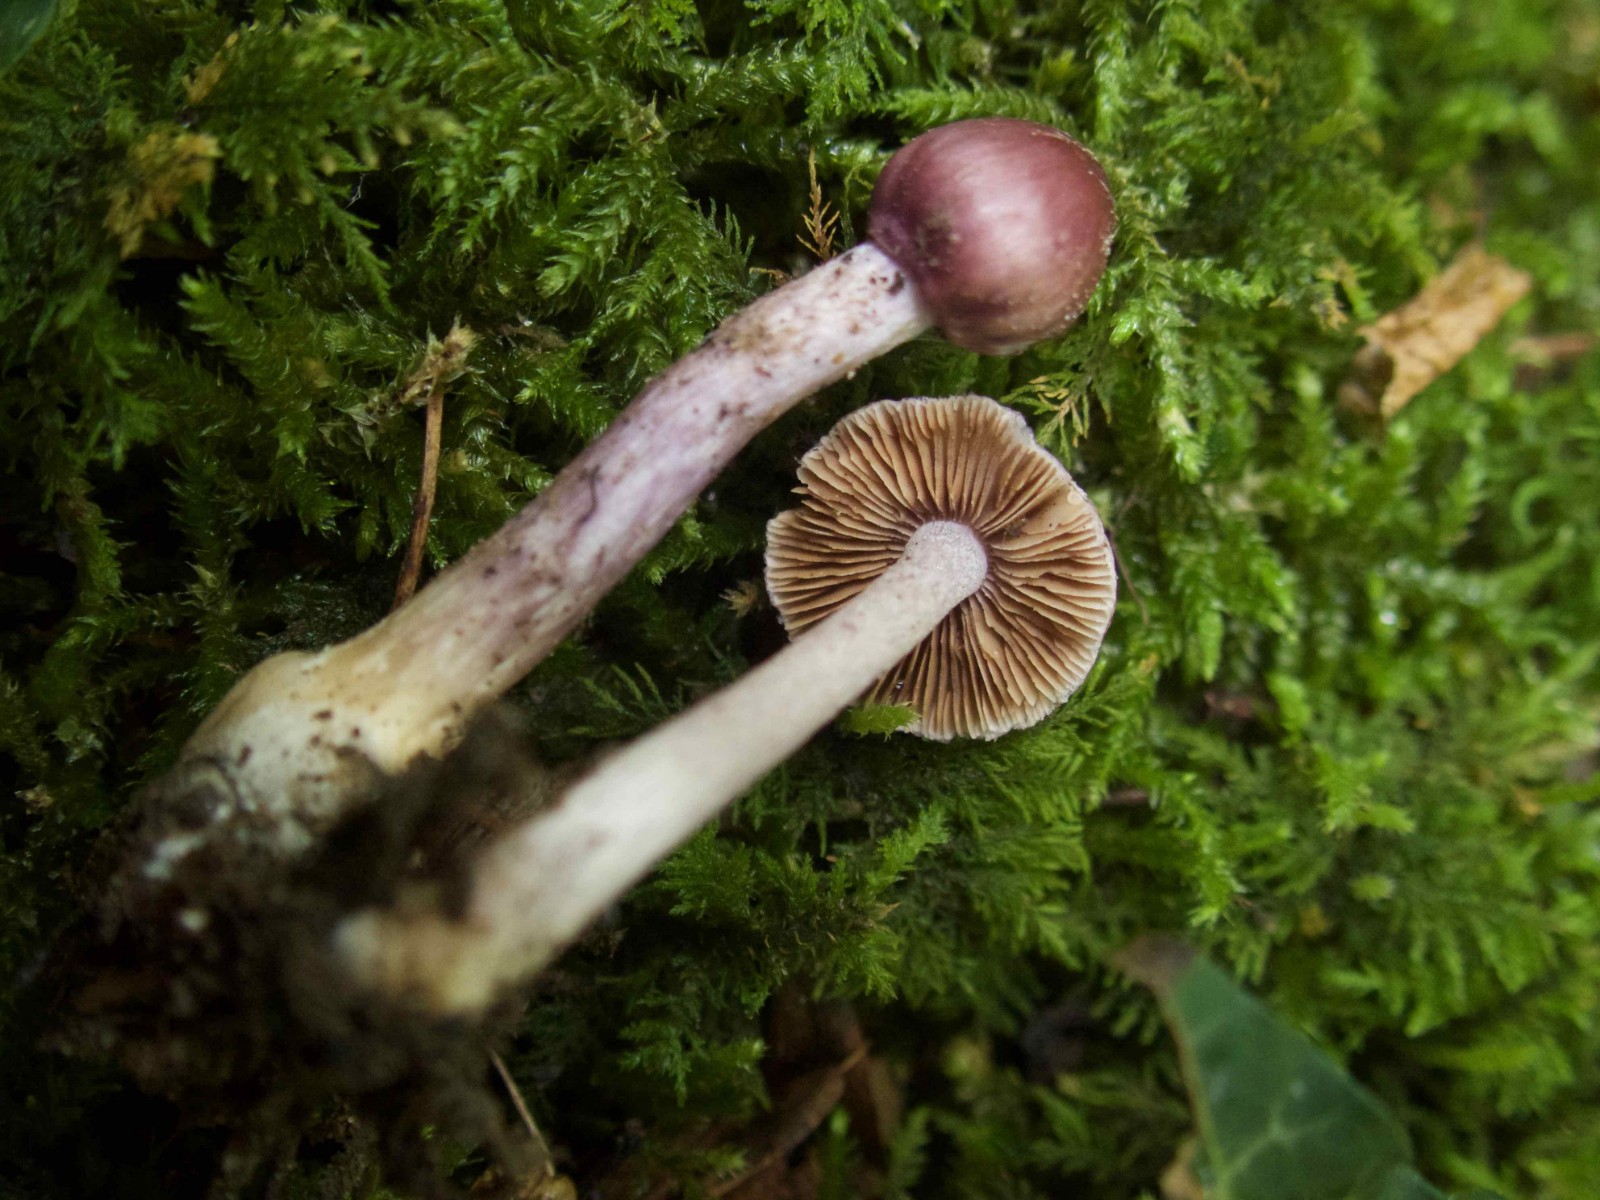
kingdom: Fungi
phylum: Basidiomycota
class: Agaricomycetes
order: Agaricales
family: Inocybaceae
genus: Inocybe
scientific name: Inocybe geophylla
